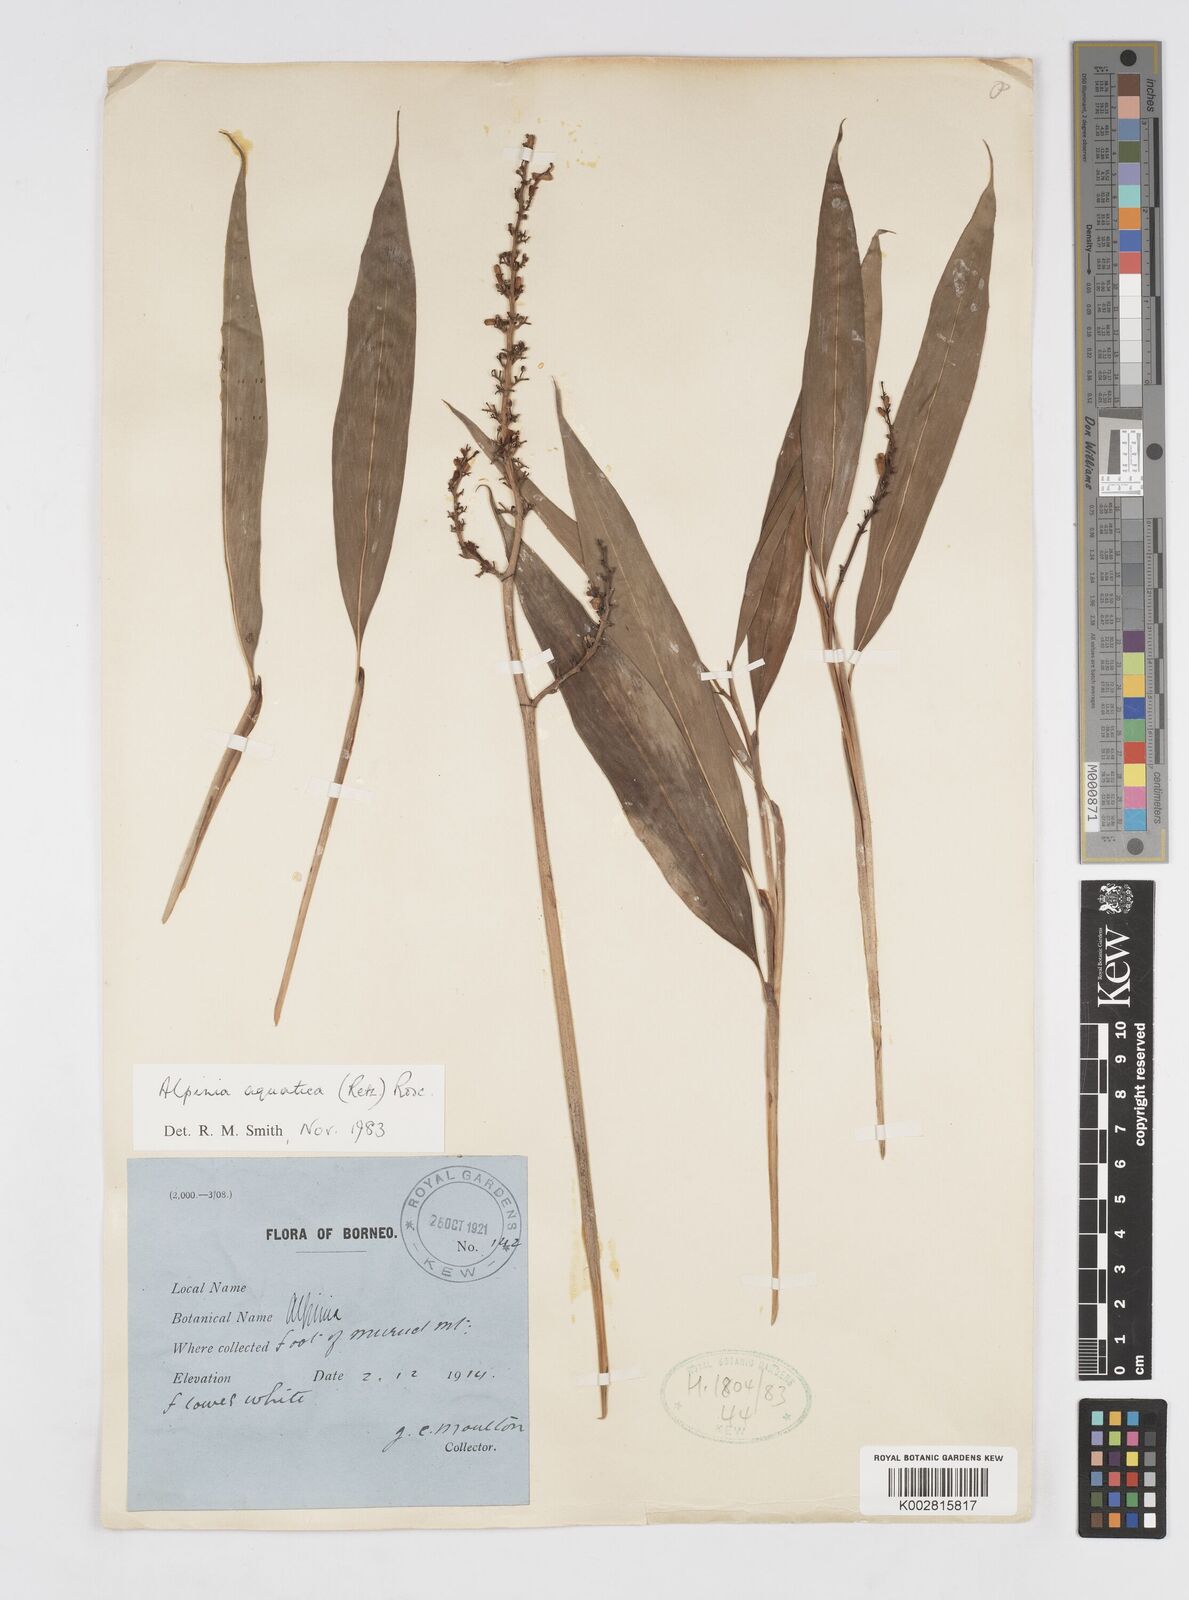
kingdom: Plantae
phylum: Tracheophyta
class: Liliopsida
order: Zingiberales
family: Zingiberaceae
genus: Alpinia
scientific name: Alpinia aquatica
